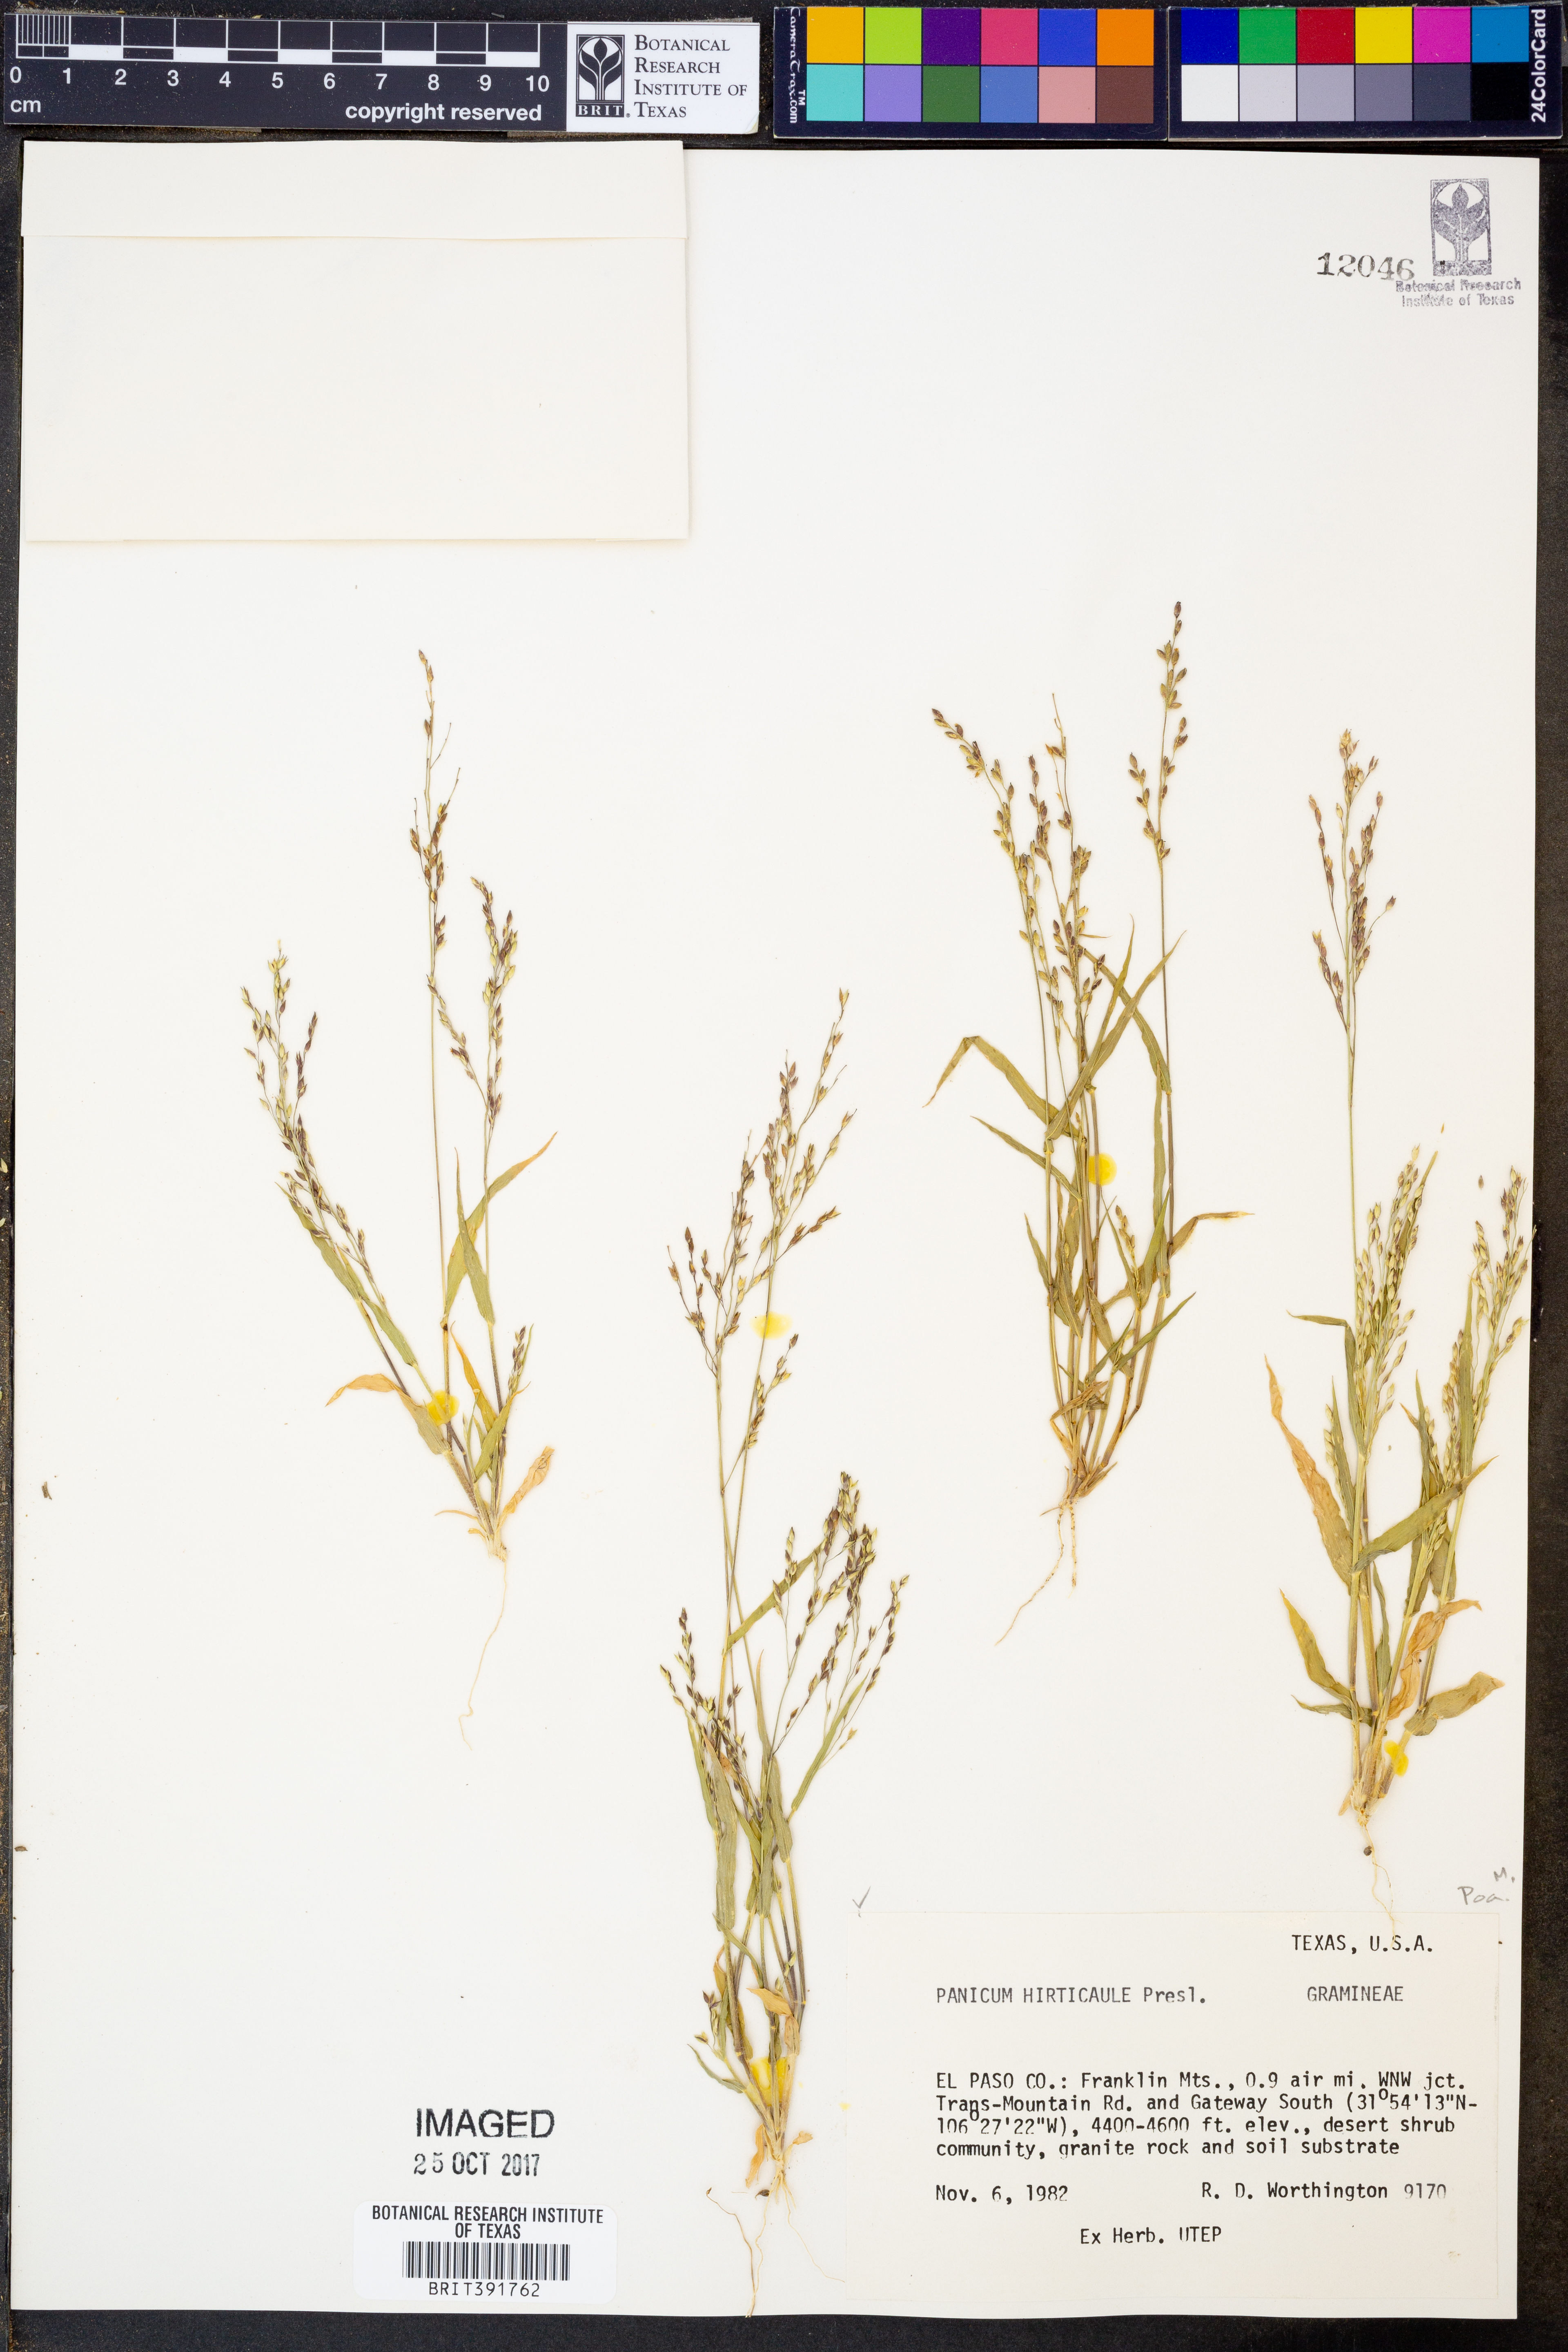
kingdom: Plantae
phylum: Tracheophyta
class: Liliopsida
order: Poales
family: Poaceae
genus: Panicum
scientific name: Panicum hirticaule
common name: Rough-stalk witchgrass
